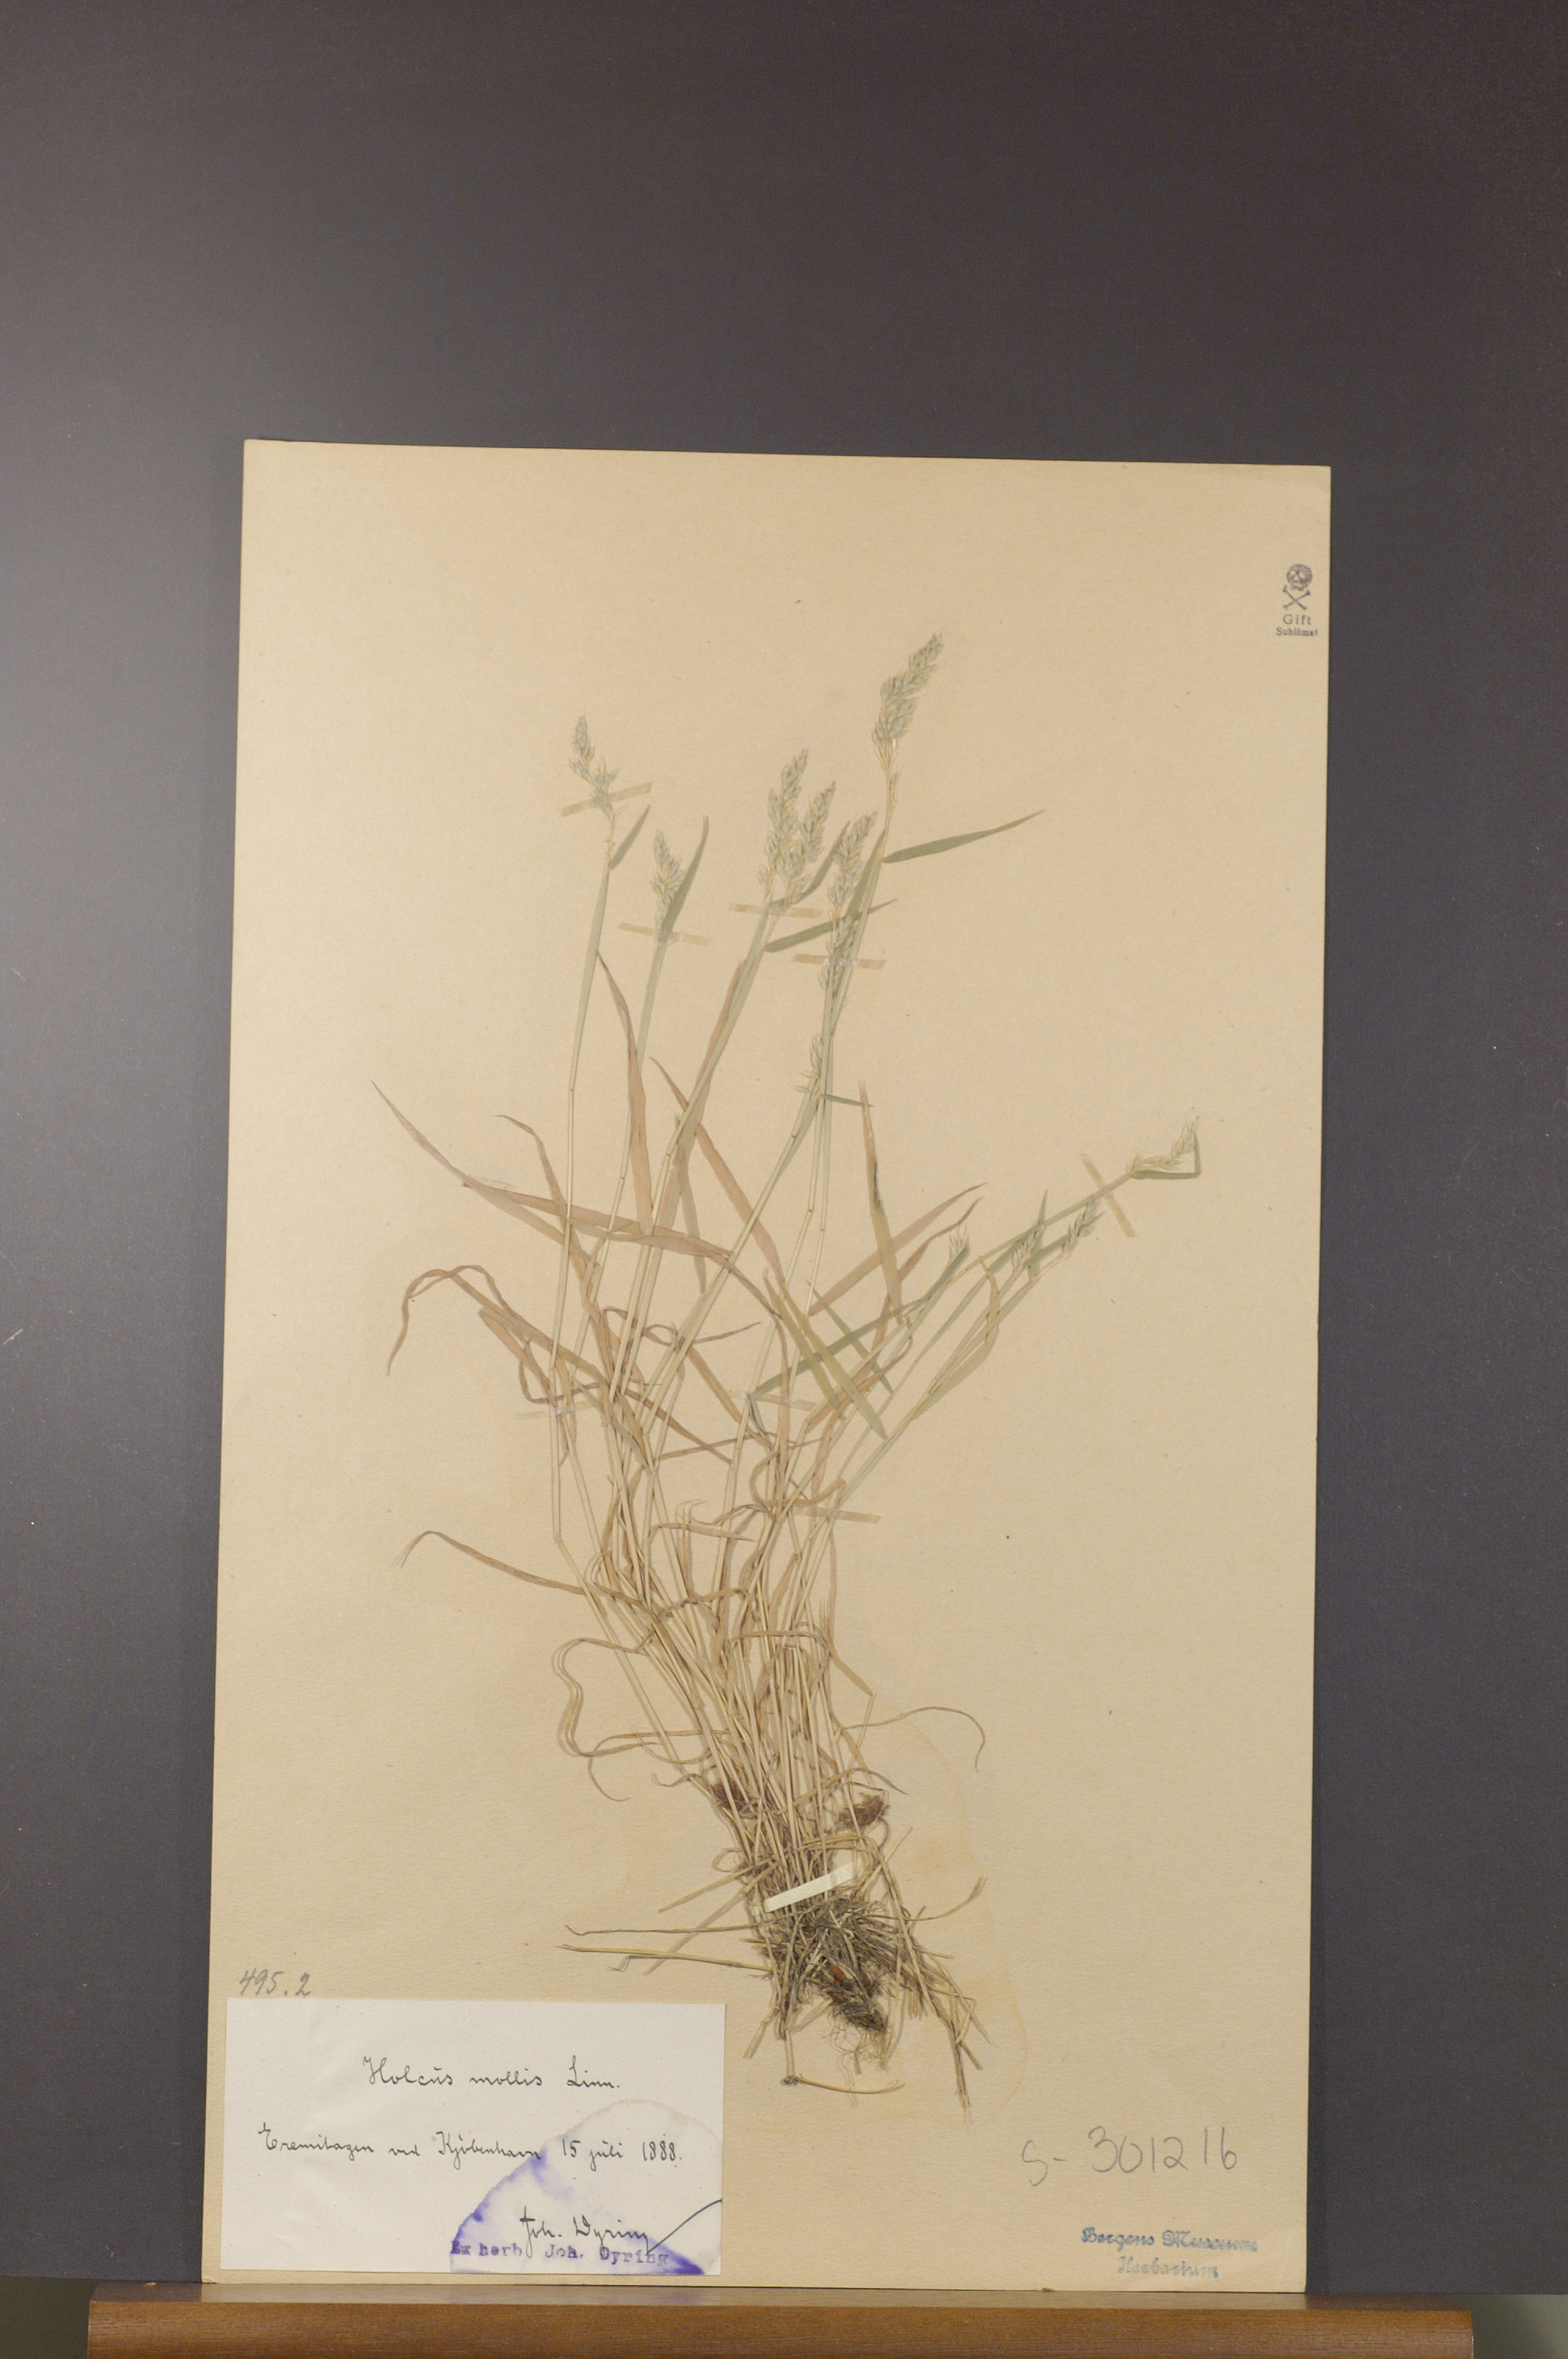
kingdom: Plantae
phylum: Tracheophyta
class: Liliopsida
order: Poales
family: Poaceae
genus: Holcus
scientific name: Holcus mollis
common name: Creeping velvetgrass
